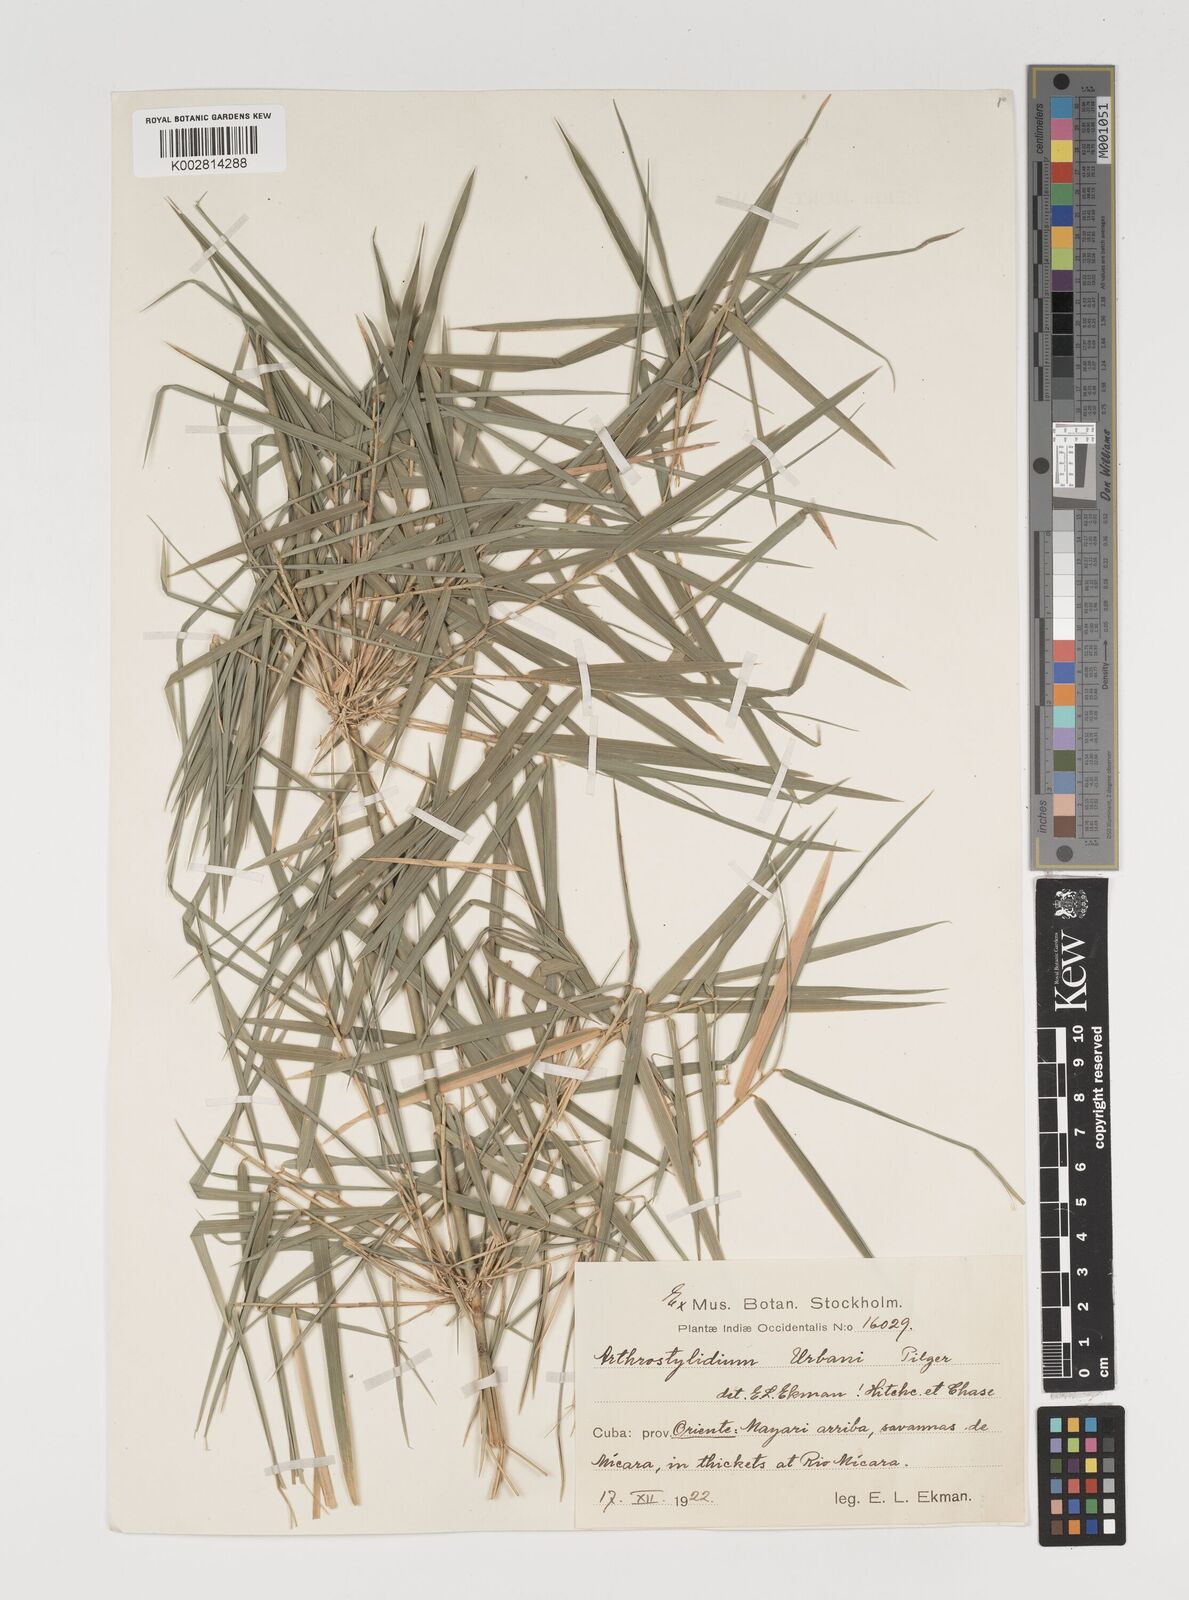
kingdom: Plantae
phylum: Tracheophyta
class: Liliopsida
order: Poales
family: Poaceae
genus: Arthrostylidium
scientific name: Arthrostylidium urbanii
